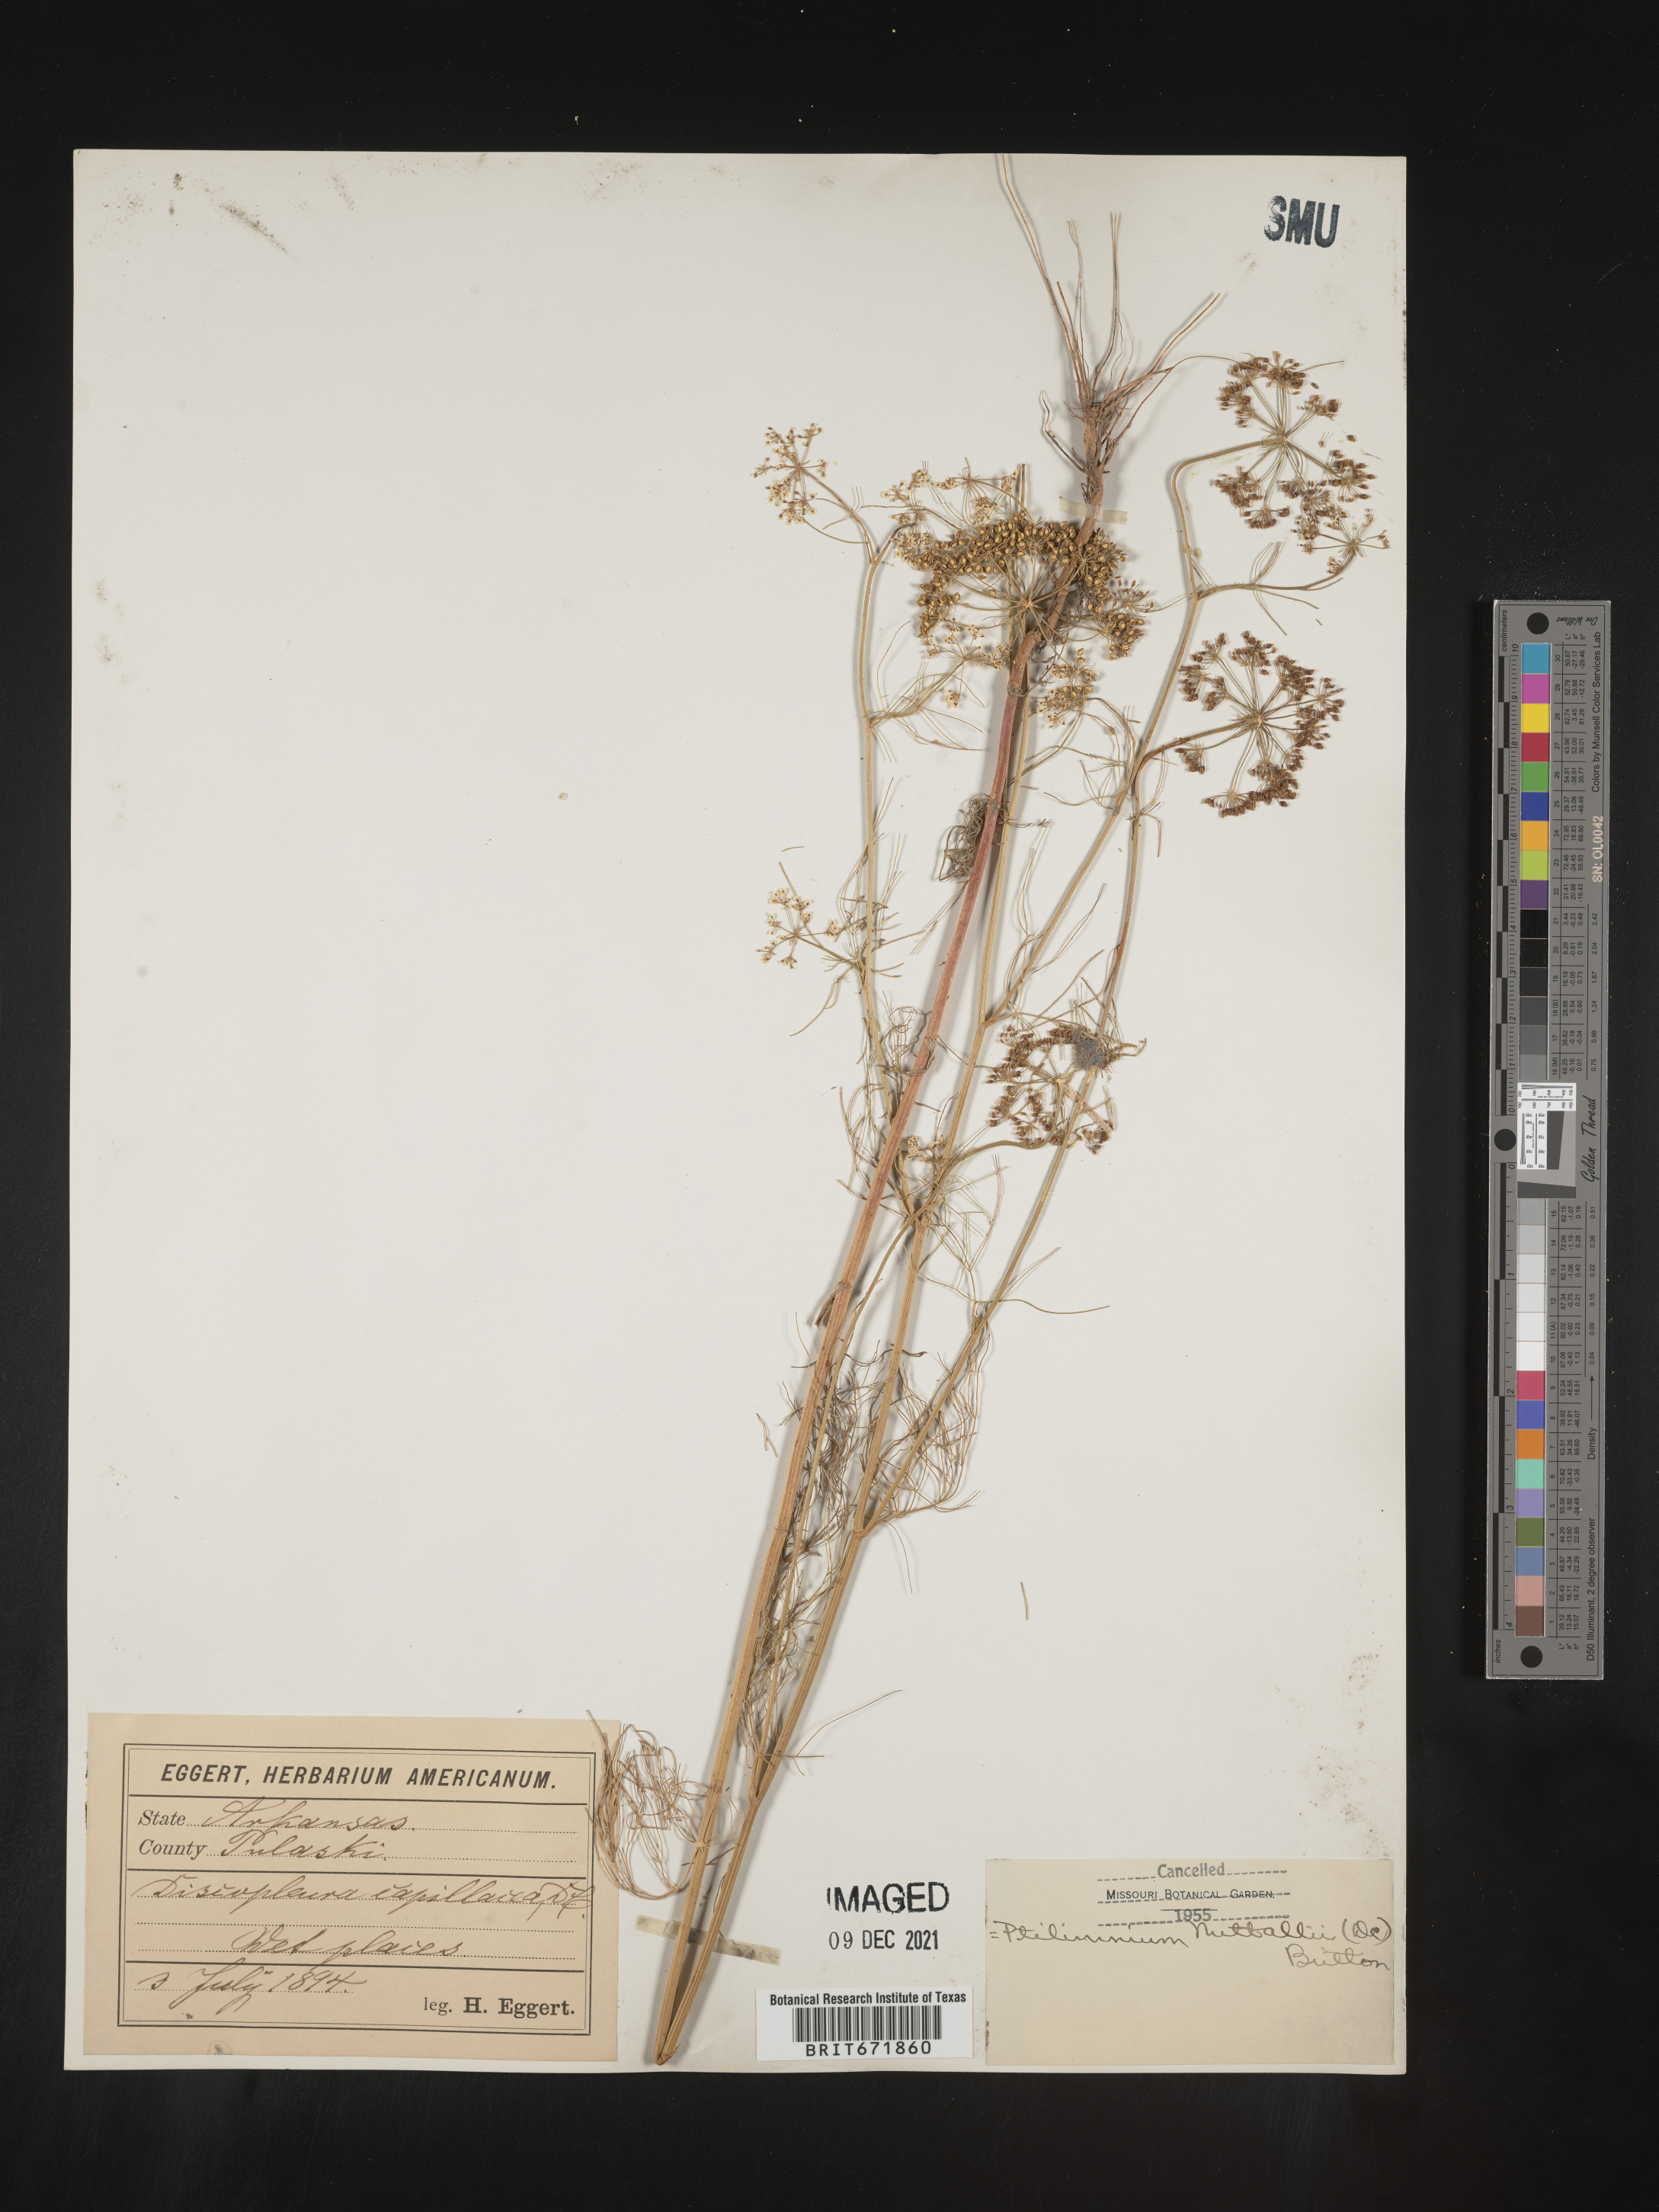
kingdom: Plantae
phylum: Tracheophyta
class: Magnoliopsida
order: Apiales
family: Apiaceae
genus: Ptilimnium
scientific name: Ptilimnium nuttallii
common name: Ozark bishop's-weed
